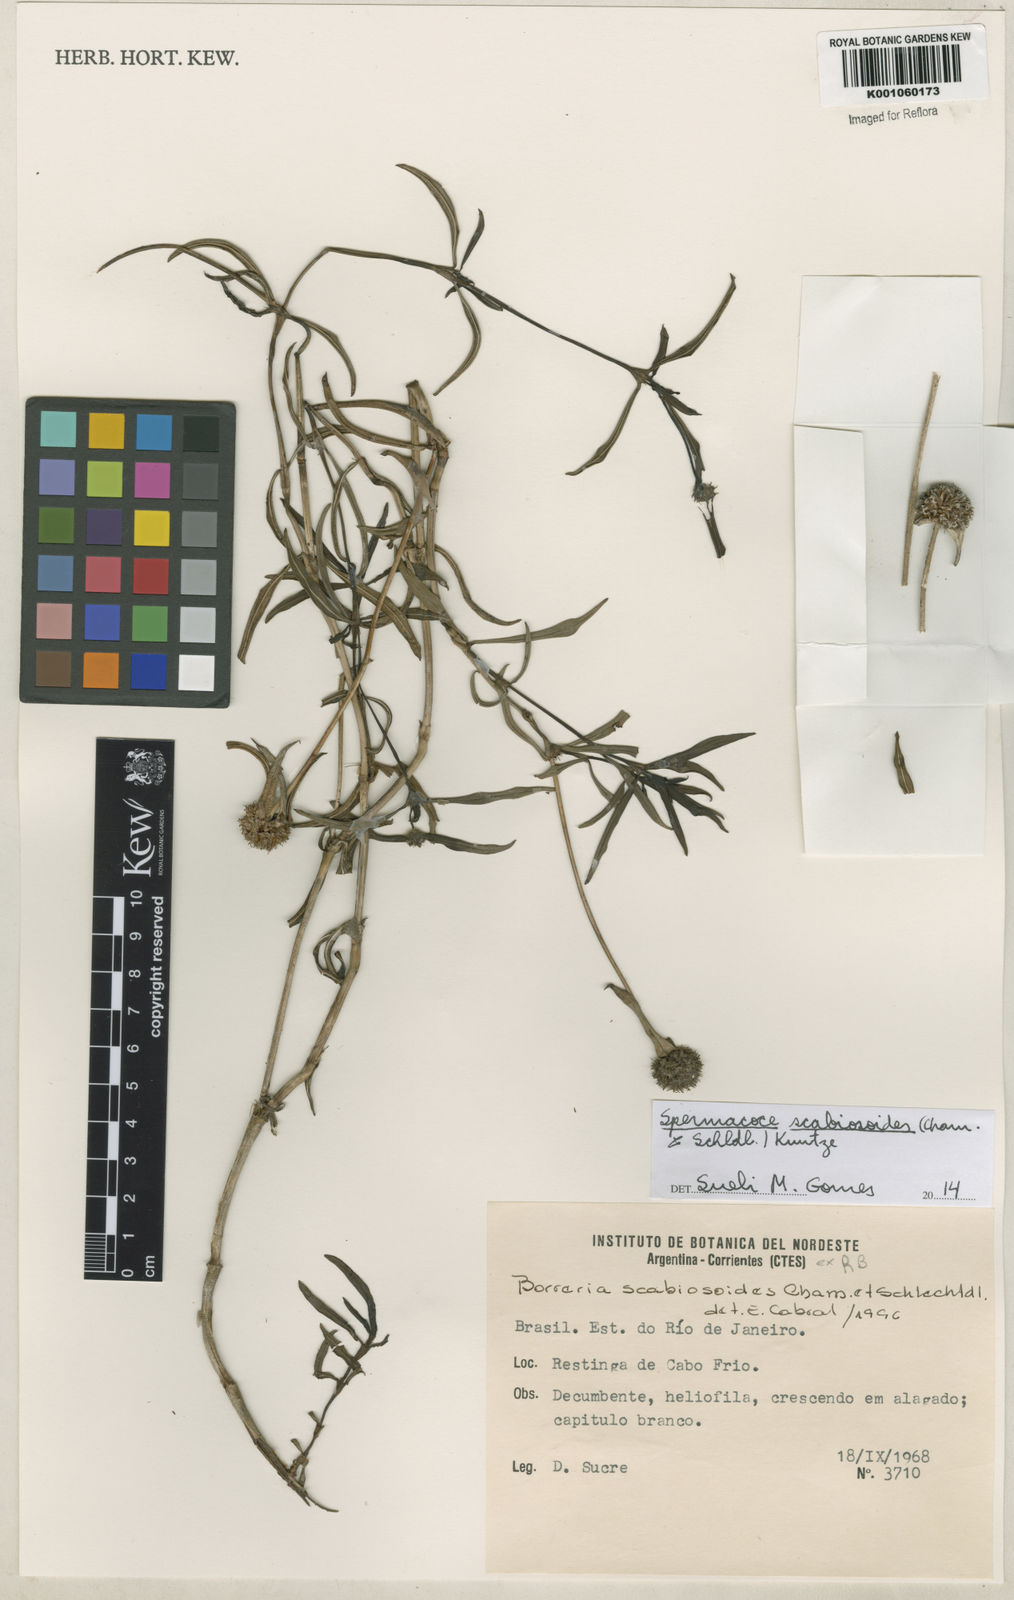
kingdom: Plantae
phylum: Tracheophyta
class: Magnoliopsida
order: Gentianales
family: Rubiaceae
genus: Spermacoce
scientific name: Spermacoce scabiosoides
